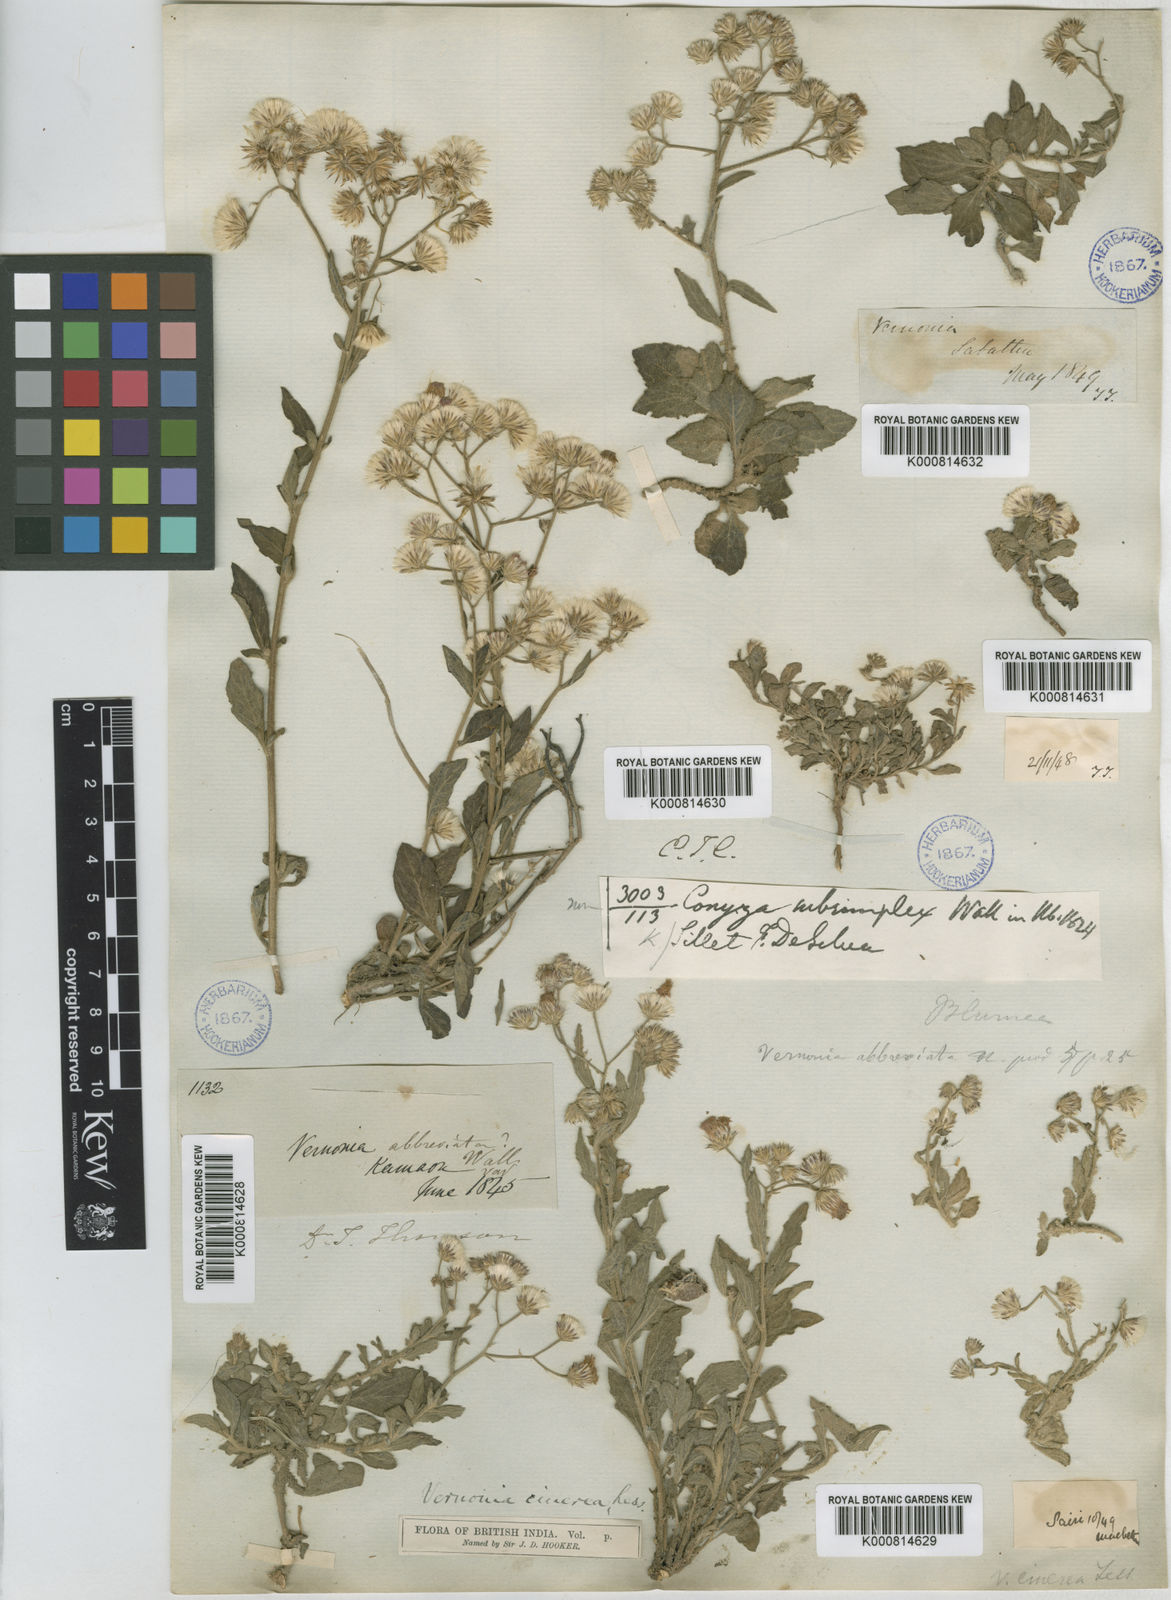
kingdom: Plantae
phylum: Tracheophyta
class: Magnoliopsida
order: Asterales
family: Asteraceae
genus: Cyanthillium
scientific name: Cyanthillium cinereum
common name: Little ironweed
